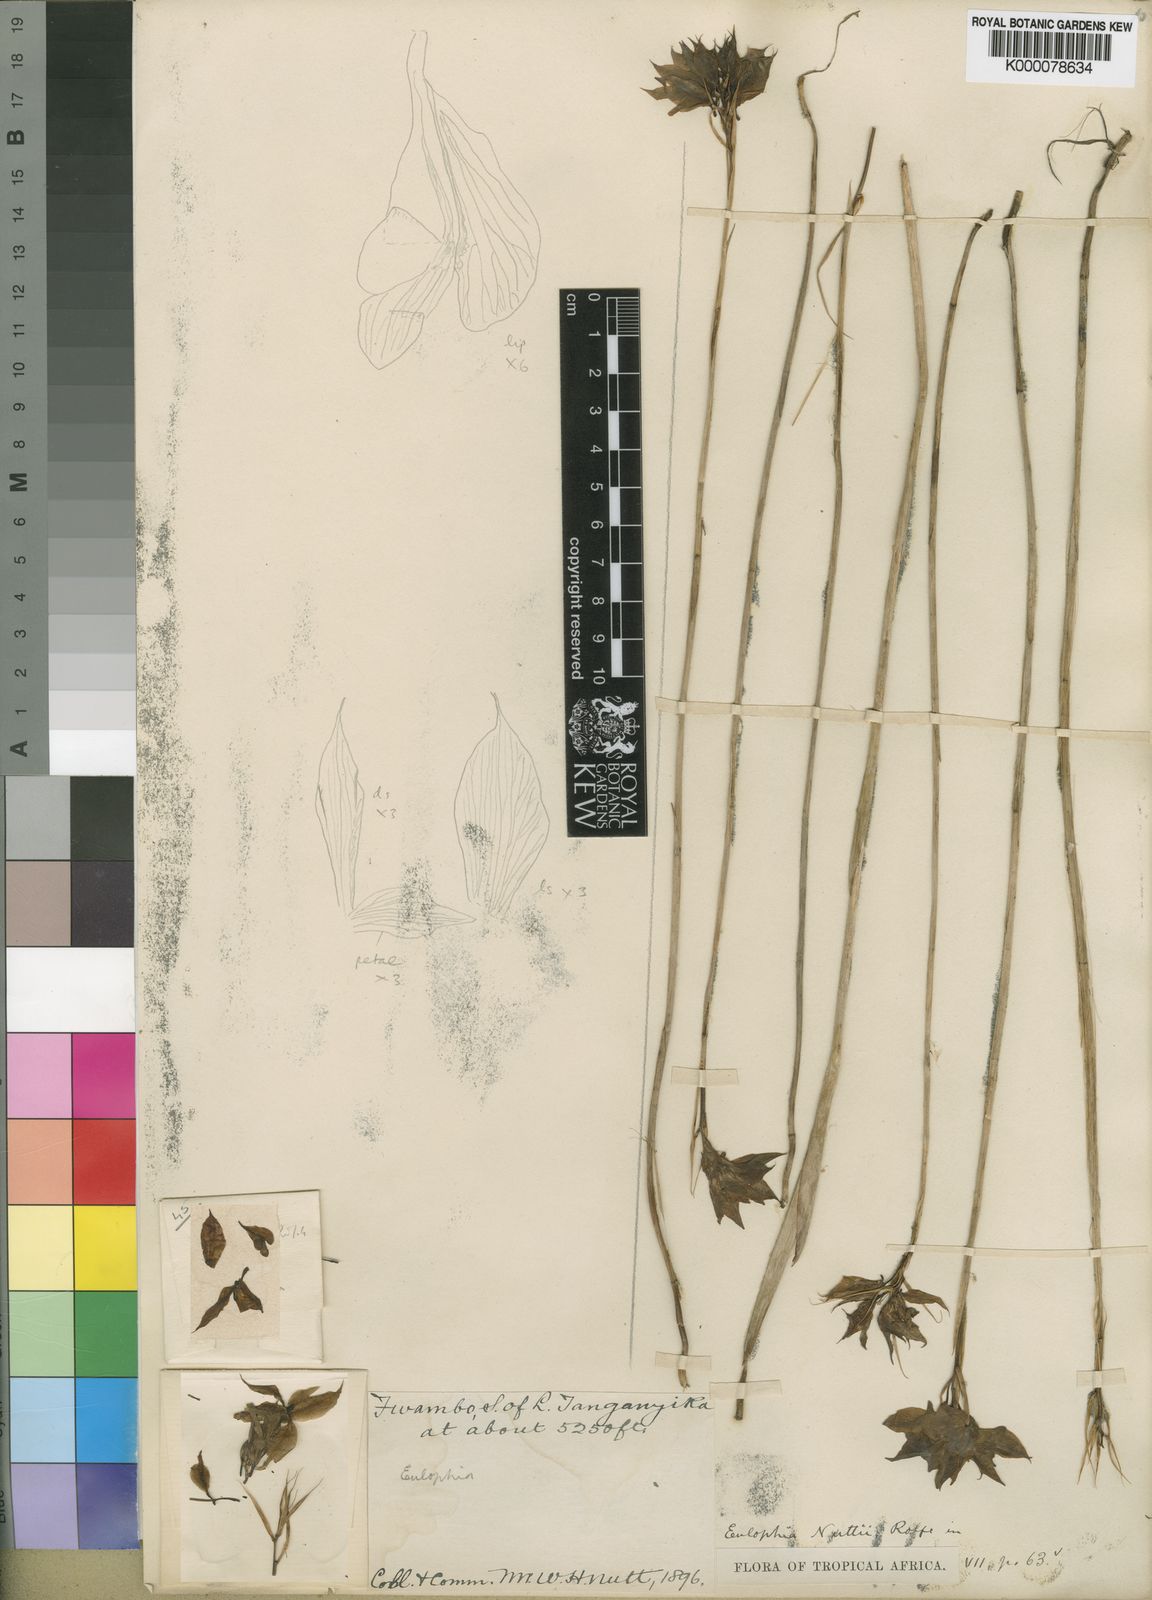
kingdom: Plantae
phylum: Tracheophyta
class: Liliopsida
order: Asparagales
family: Orchidaceae
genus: Eulophia
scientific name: Eulophia nuttii
